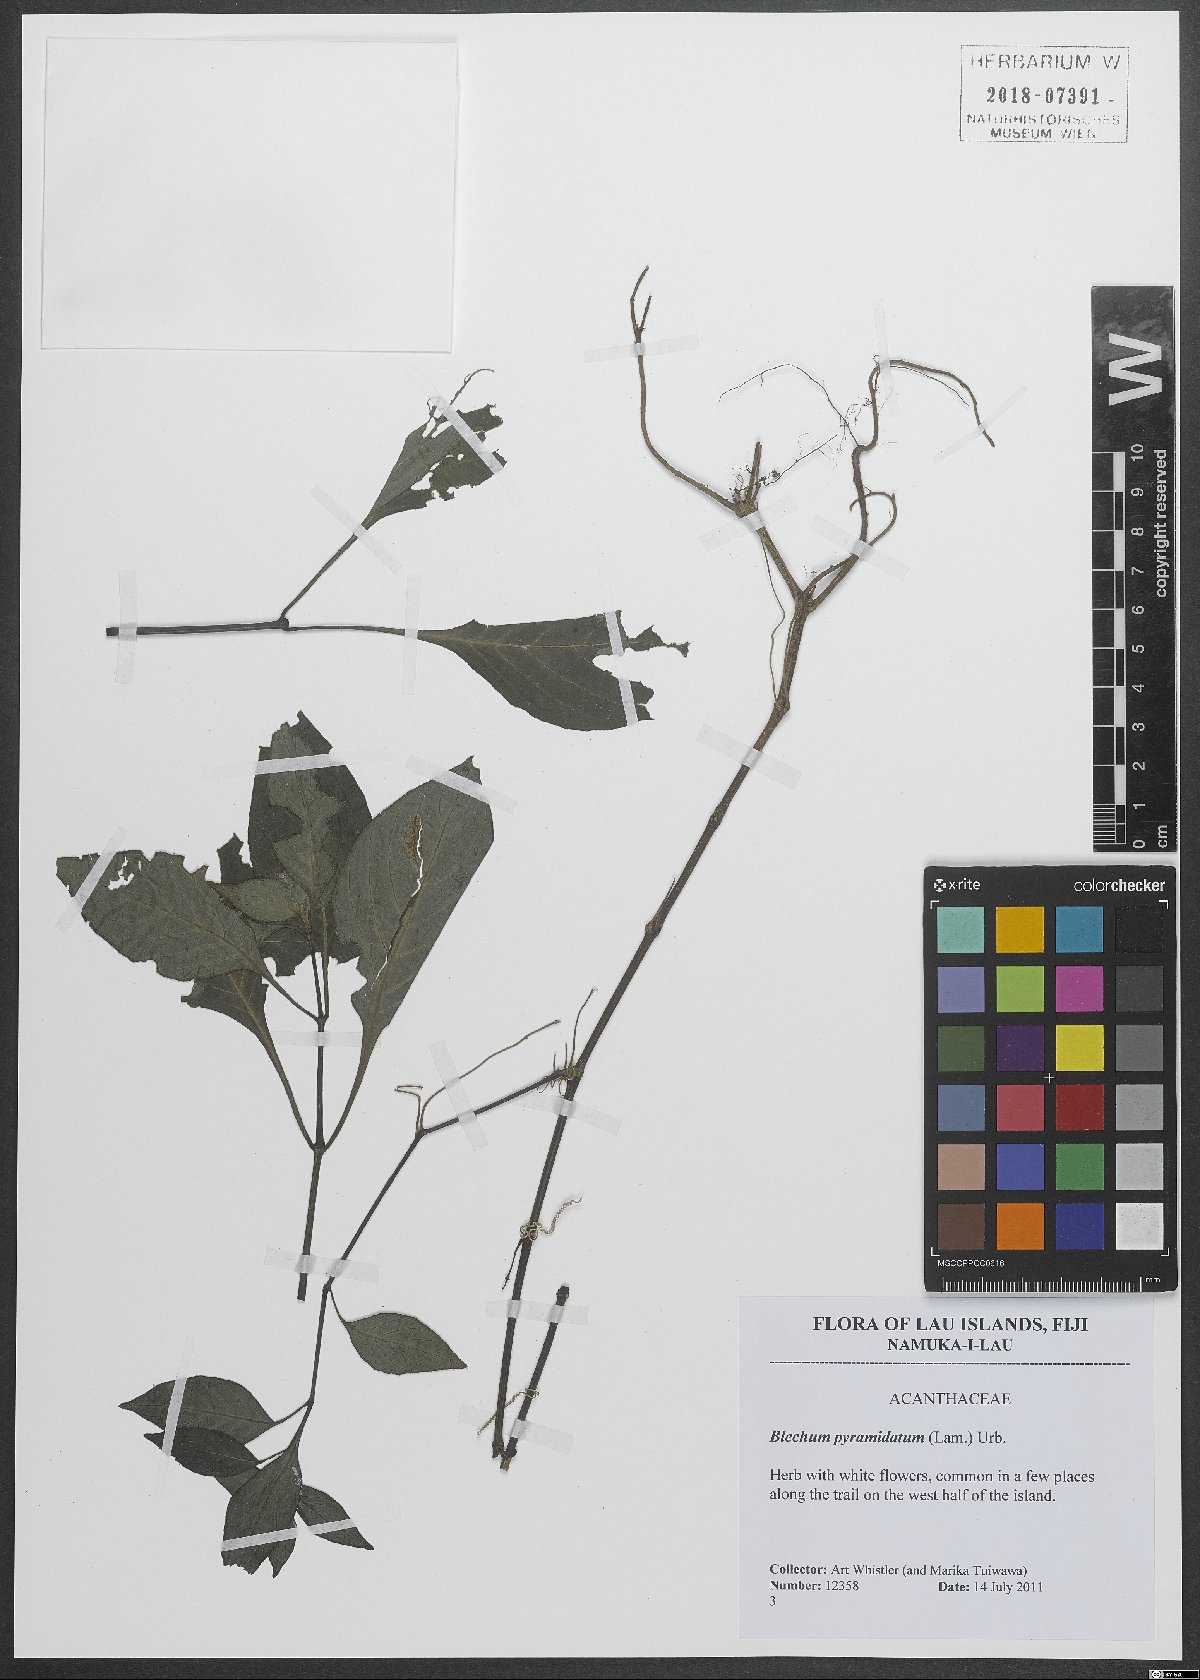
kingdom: Plantae
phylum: Tracheophyta
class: Magnoliopsida
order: Lamiales
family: Acanthaceae
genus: Ruellia
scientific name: Ruellia blechum
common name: Browne's blechum
